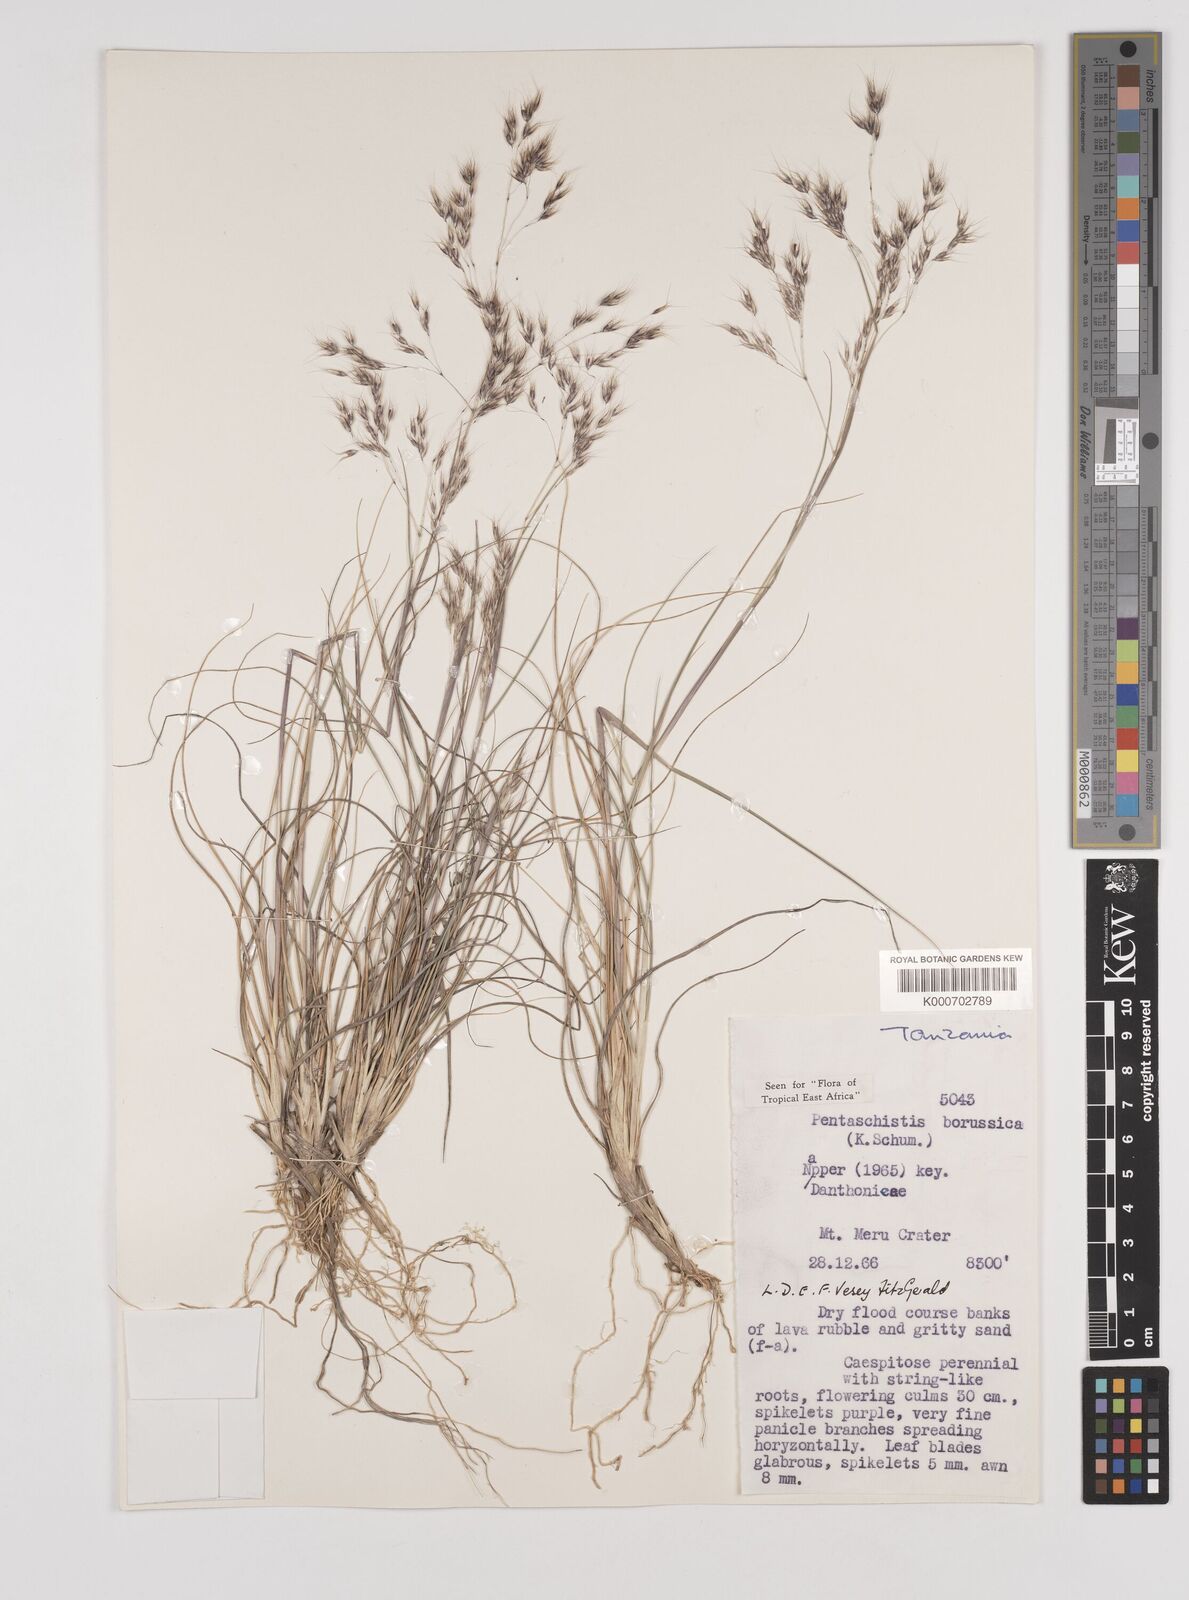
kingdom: Plantae
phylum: Tracheophyta
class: Liliopsida
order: Poales
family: Poaceae
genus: Pentameris
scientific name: Pentameris borussica
